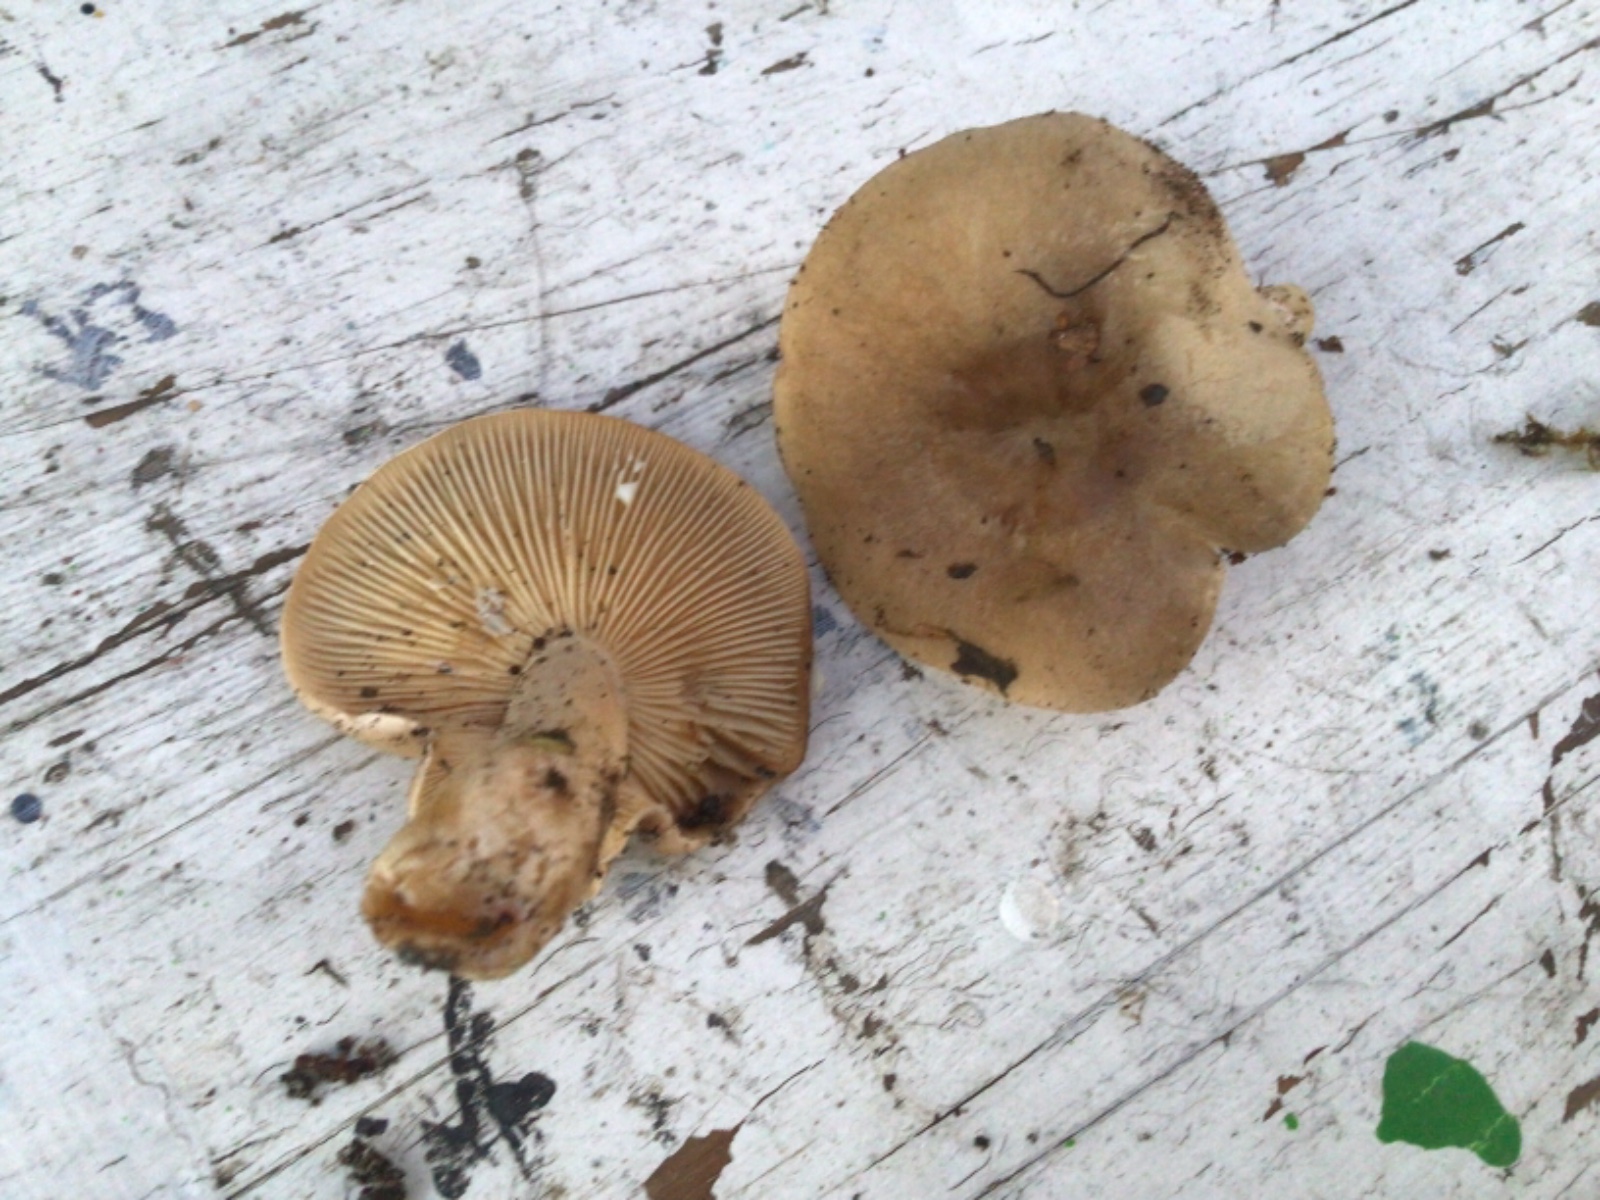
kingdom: Fungi
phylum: Basidiomycota
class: Agaricomycetes
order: Russulales
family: Russulaceae
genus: Lactarius
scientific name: Lactarius pyrogalus
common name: hassel-mælkehat
